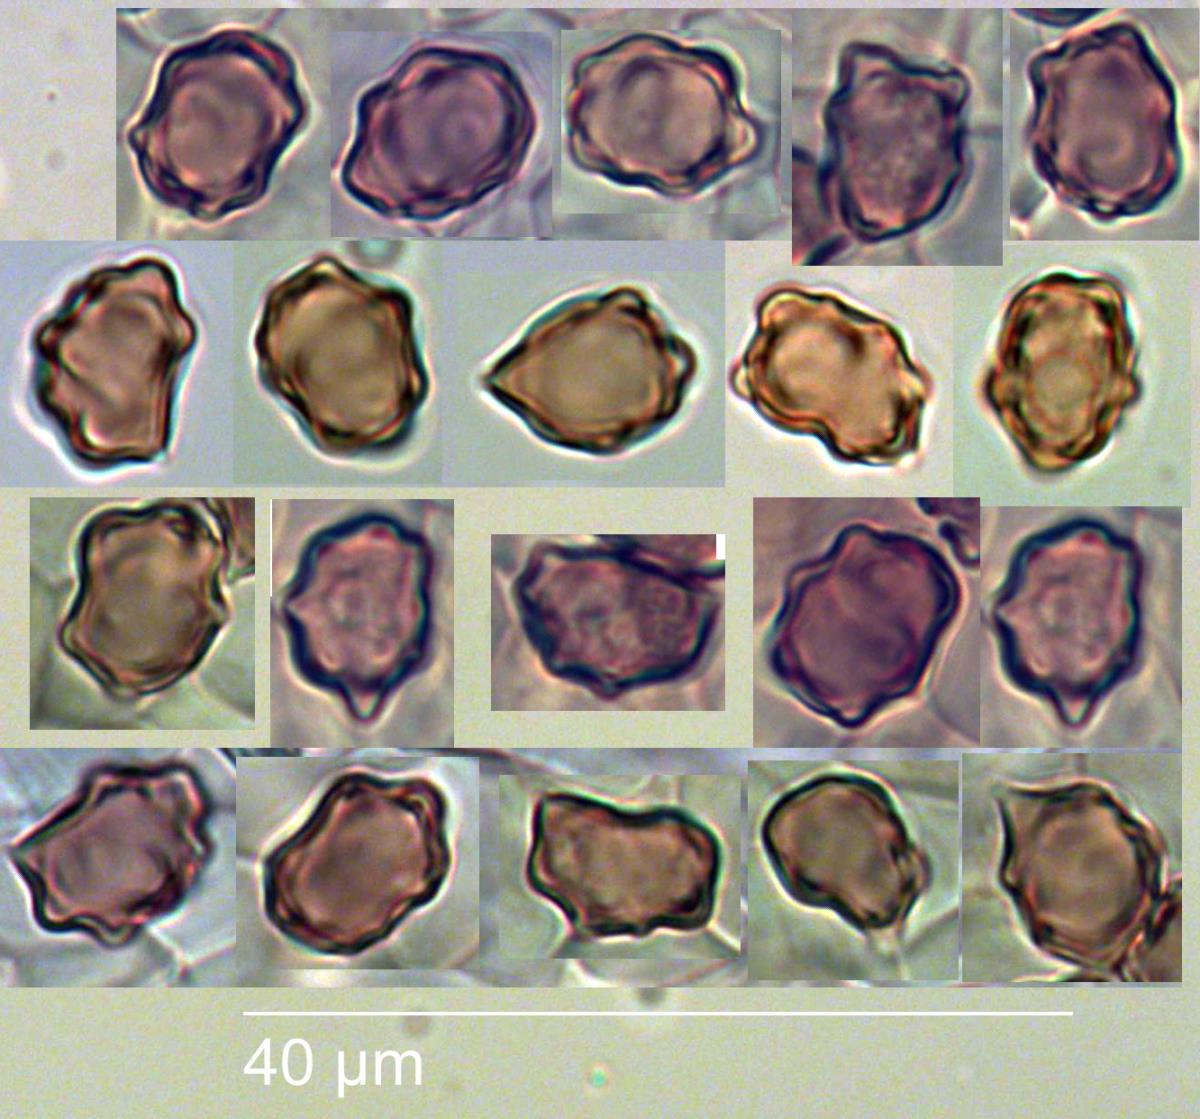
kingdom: Fungi
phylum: Basidiomycota
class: Agaricomycetes
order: Agaricales
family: Inocybaceae
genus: Inocybe
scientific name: Inocybe horakomyces
